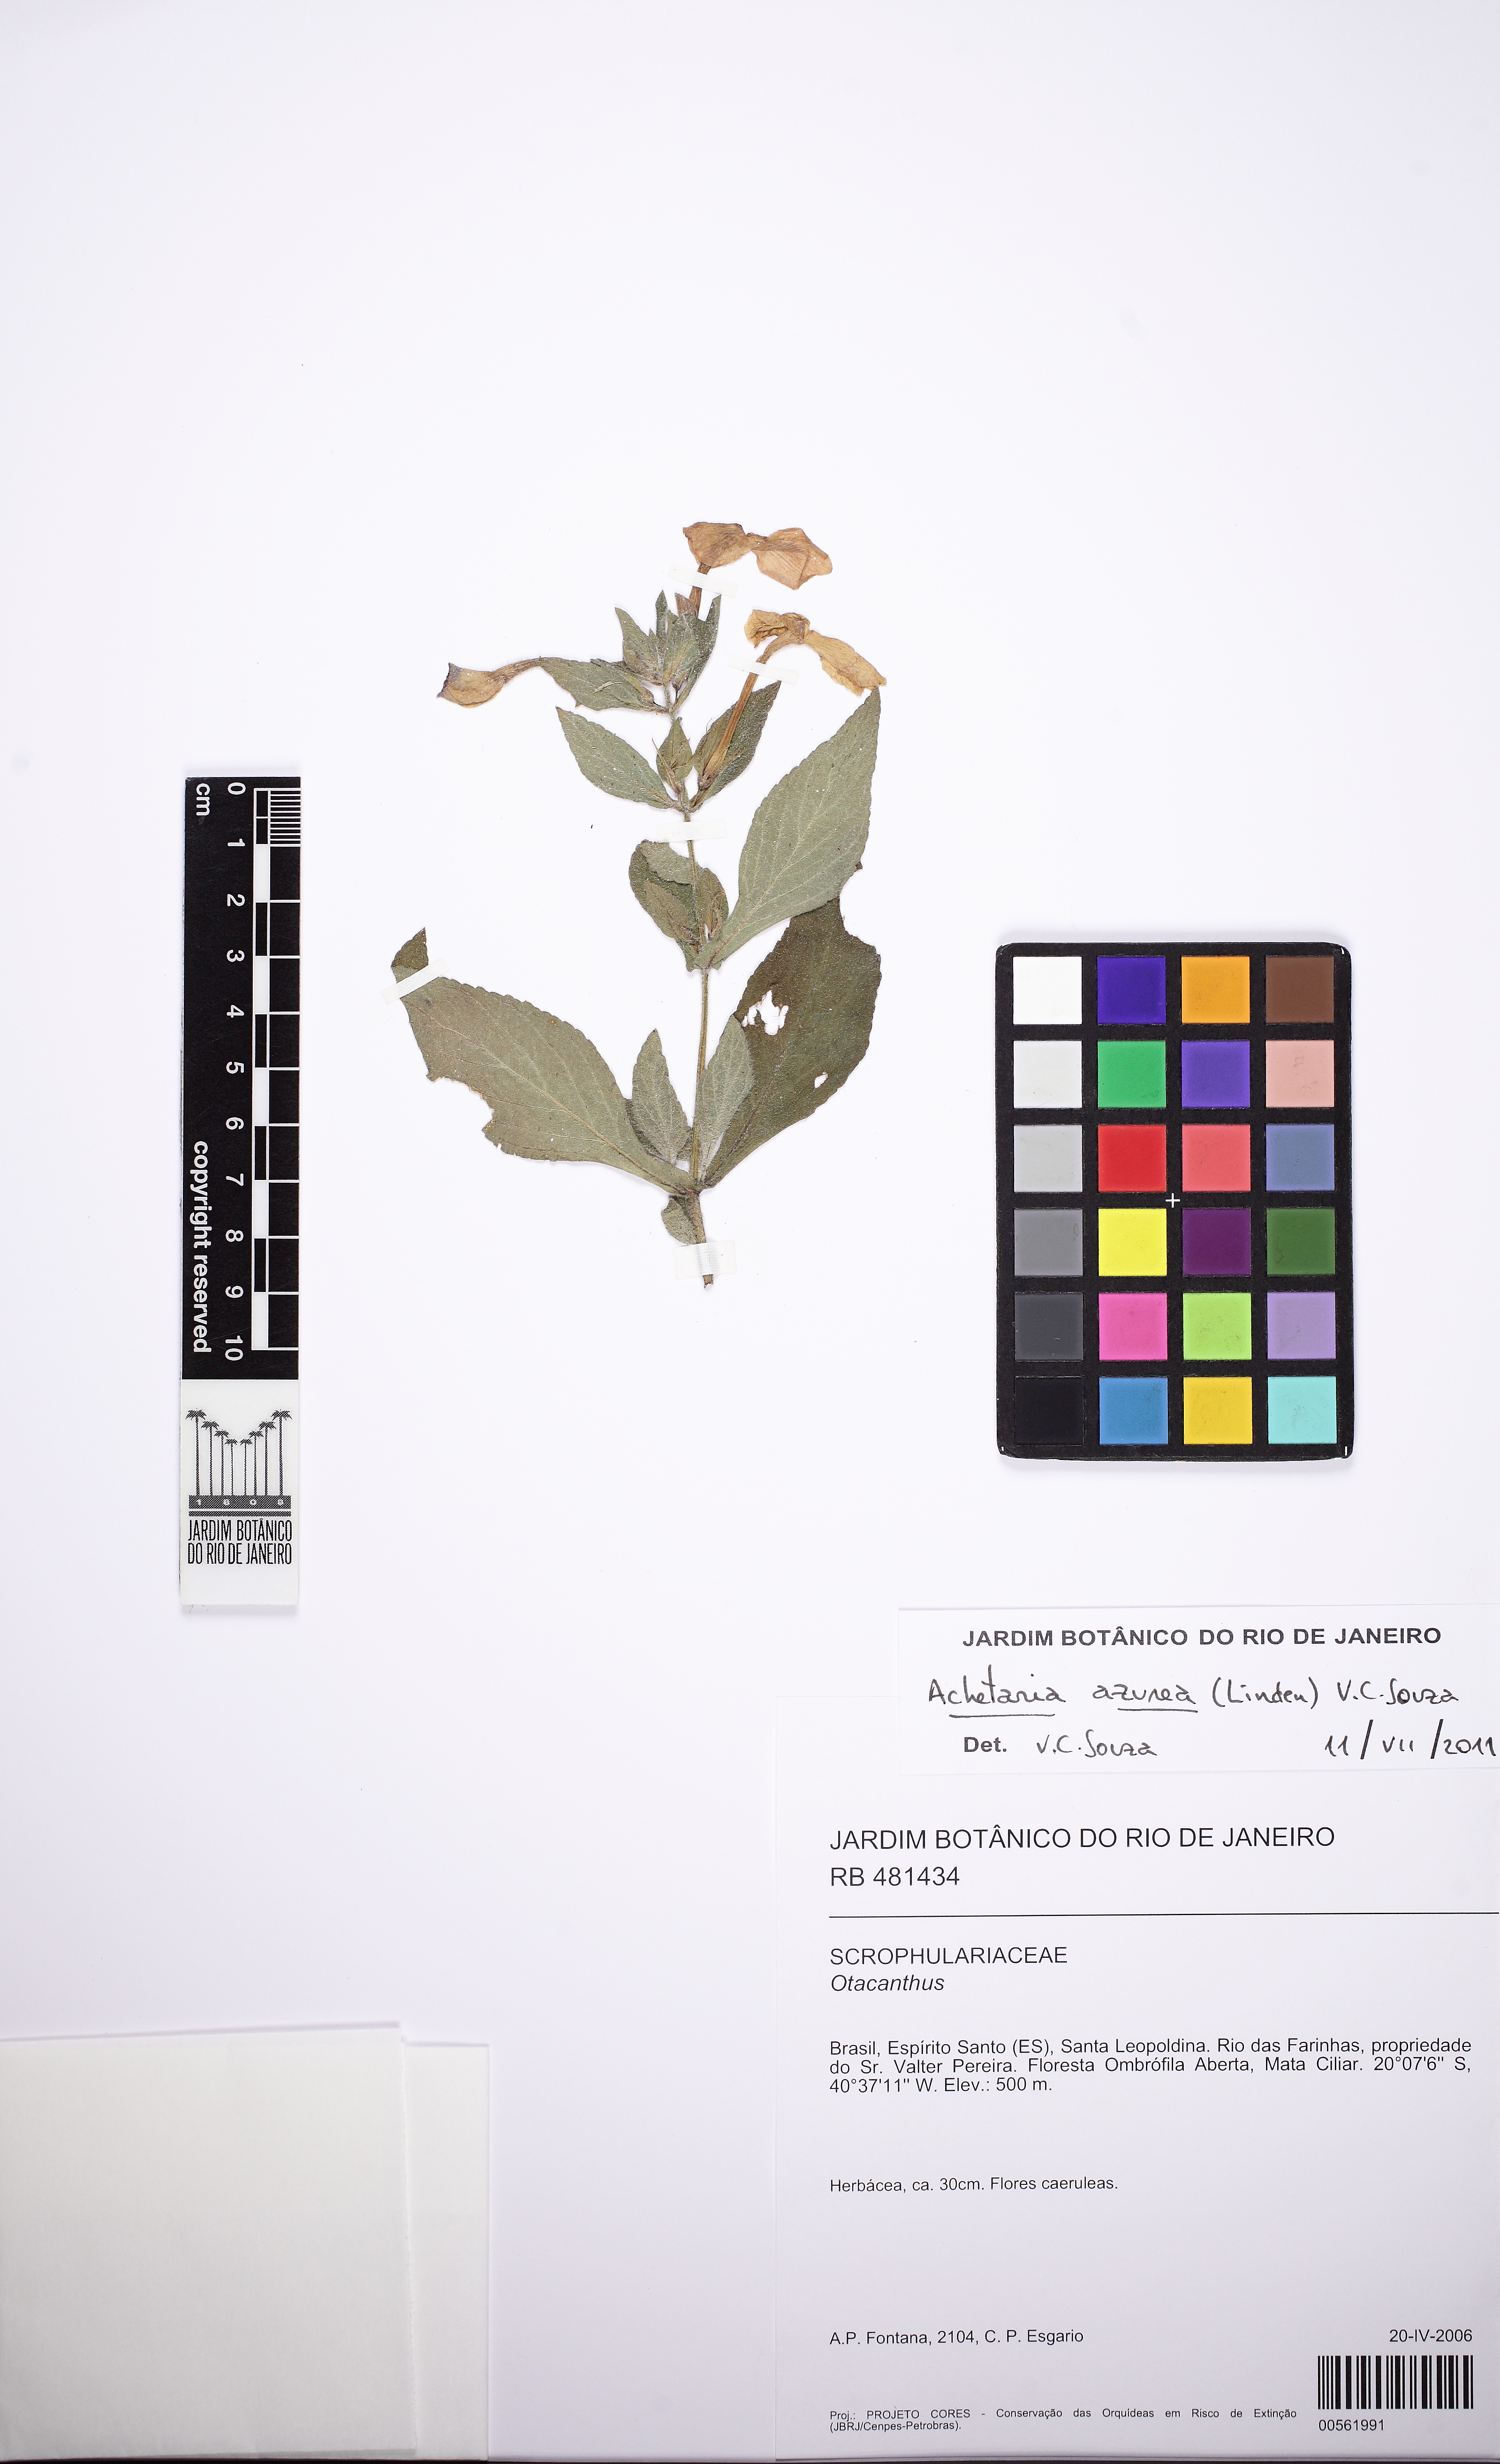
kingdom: Plantae
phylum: Tracheophyta
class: Magnoliopsida
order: Lamiales
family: Plantaginaceae
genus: Matourea
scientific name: Matourea platychila
